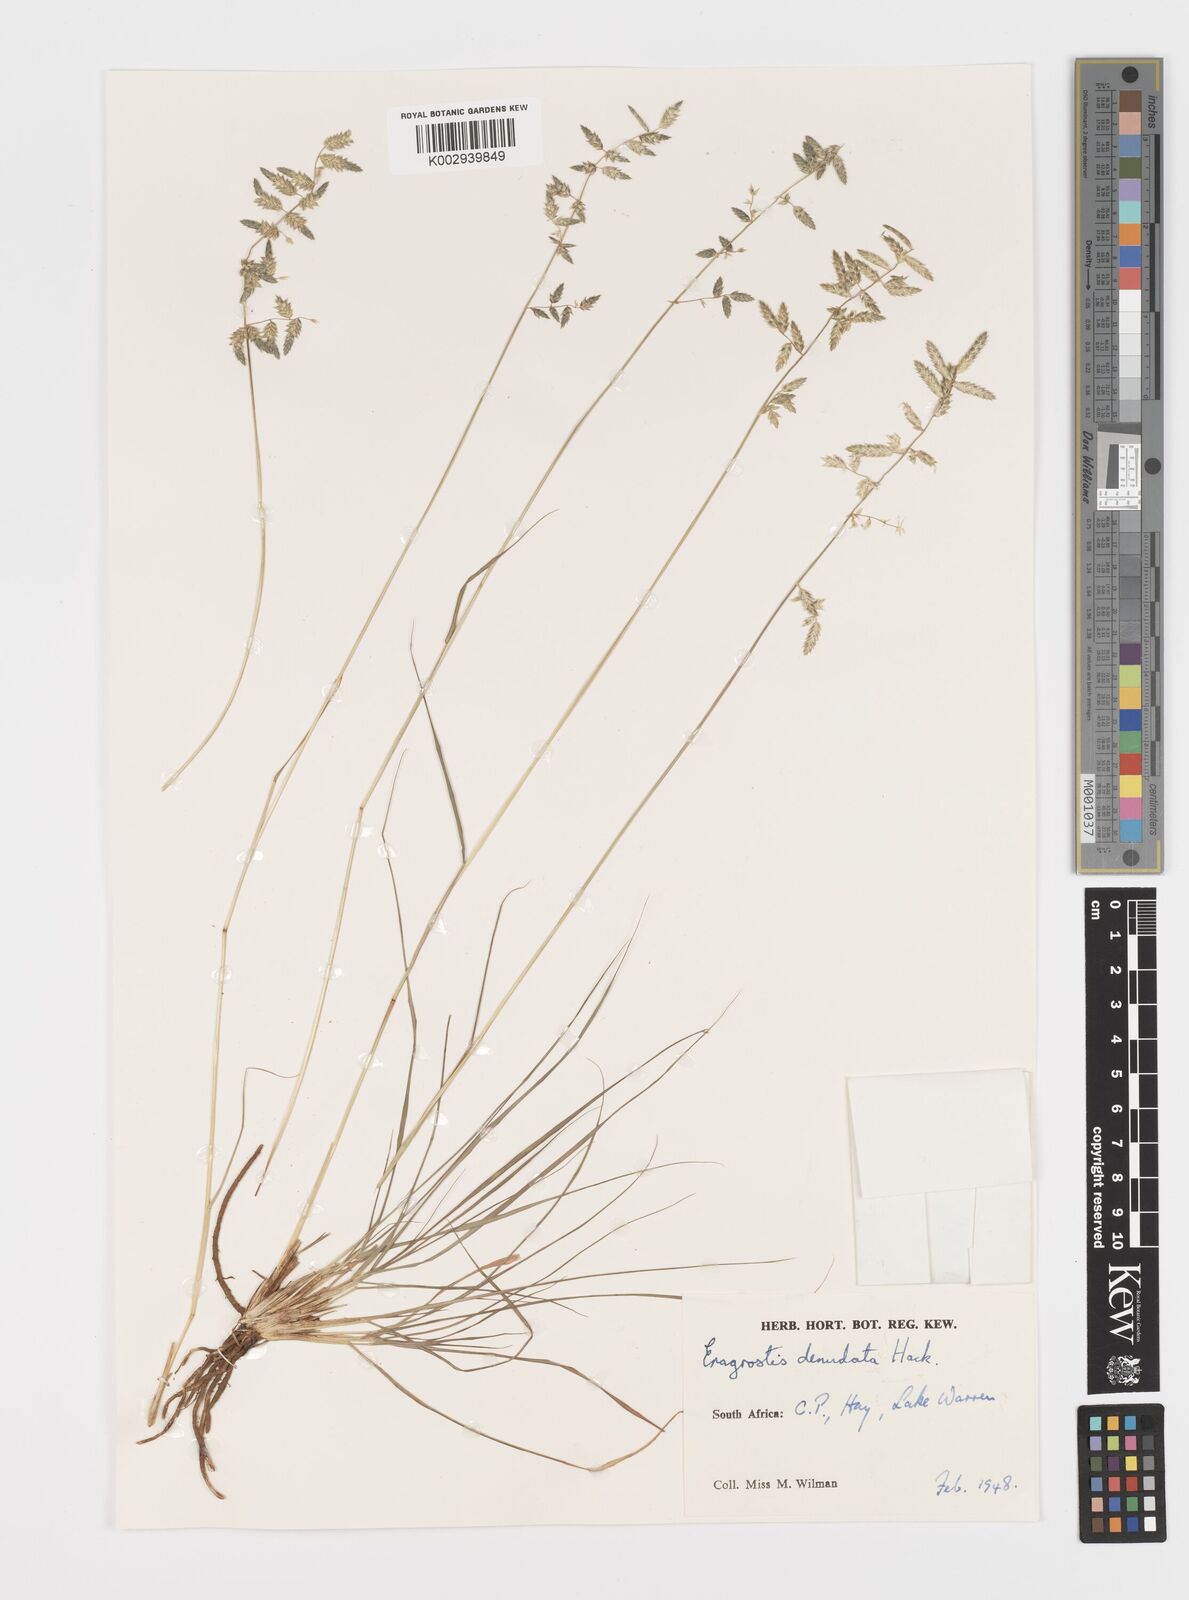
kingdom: Plantae
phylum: Tracheophyta
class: Liliopsida
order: Poales
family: Poaceae
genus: Eragrostis
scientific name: Eragrostis nindensis
